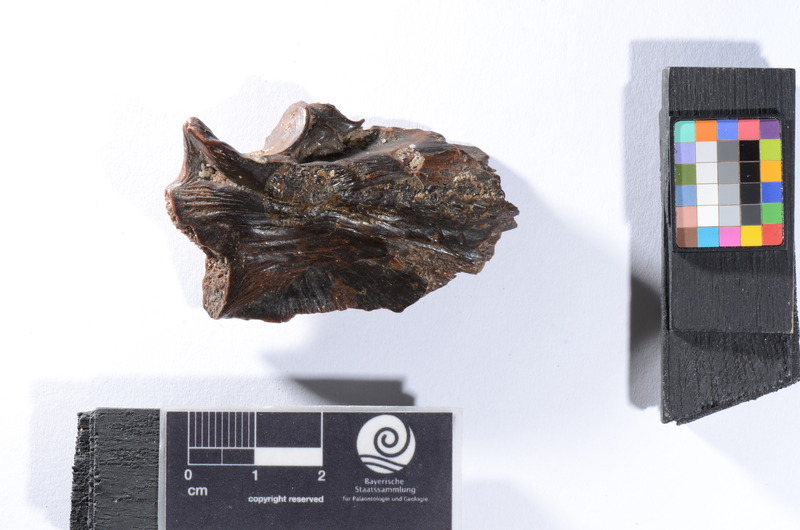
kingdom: Animalia
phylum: Chordata
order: Perciformes
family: Latidae
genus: Lates
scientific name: Lates niloticus
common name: Nile perch
